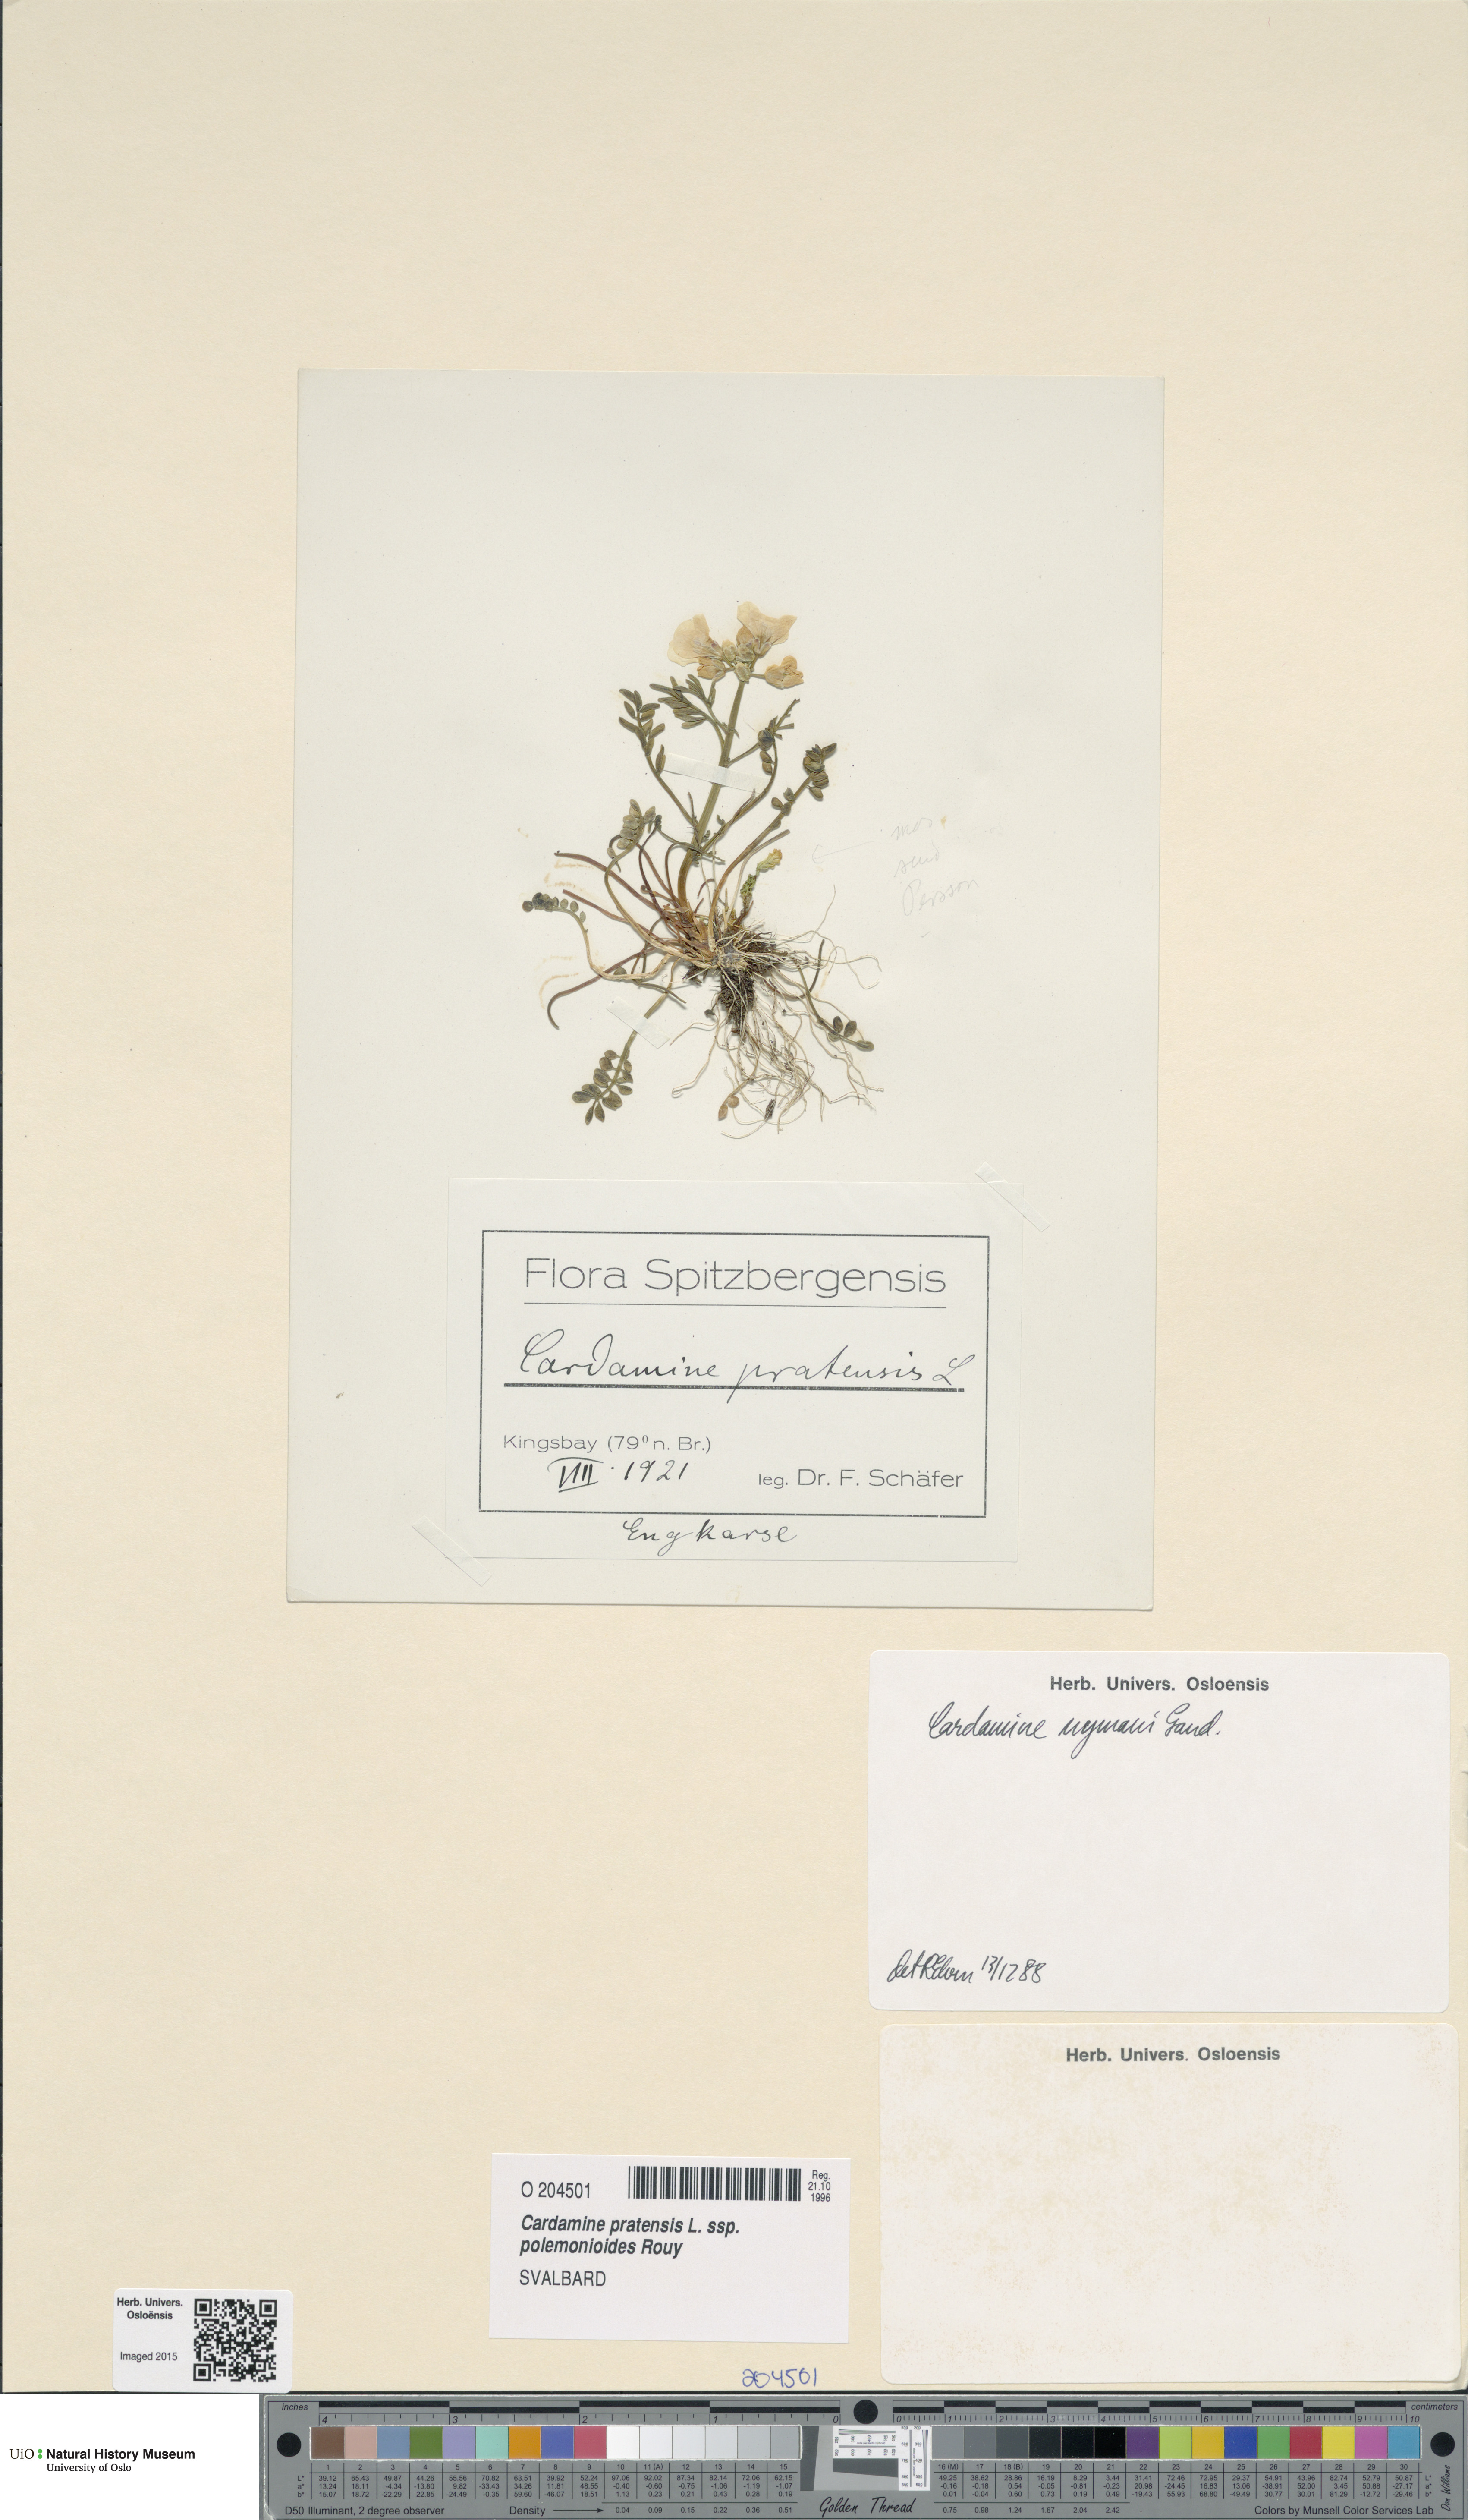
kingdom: Plantae
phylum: Tracheophyta
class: Magnoliopsida
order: Brassicales
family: Brassicaceae
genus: Cardamine
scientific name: Cardamine nymanii
